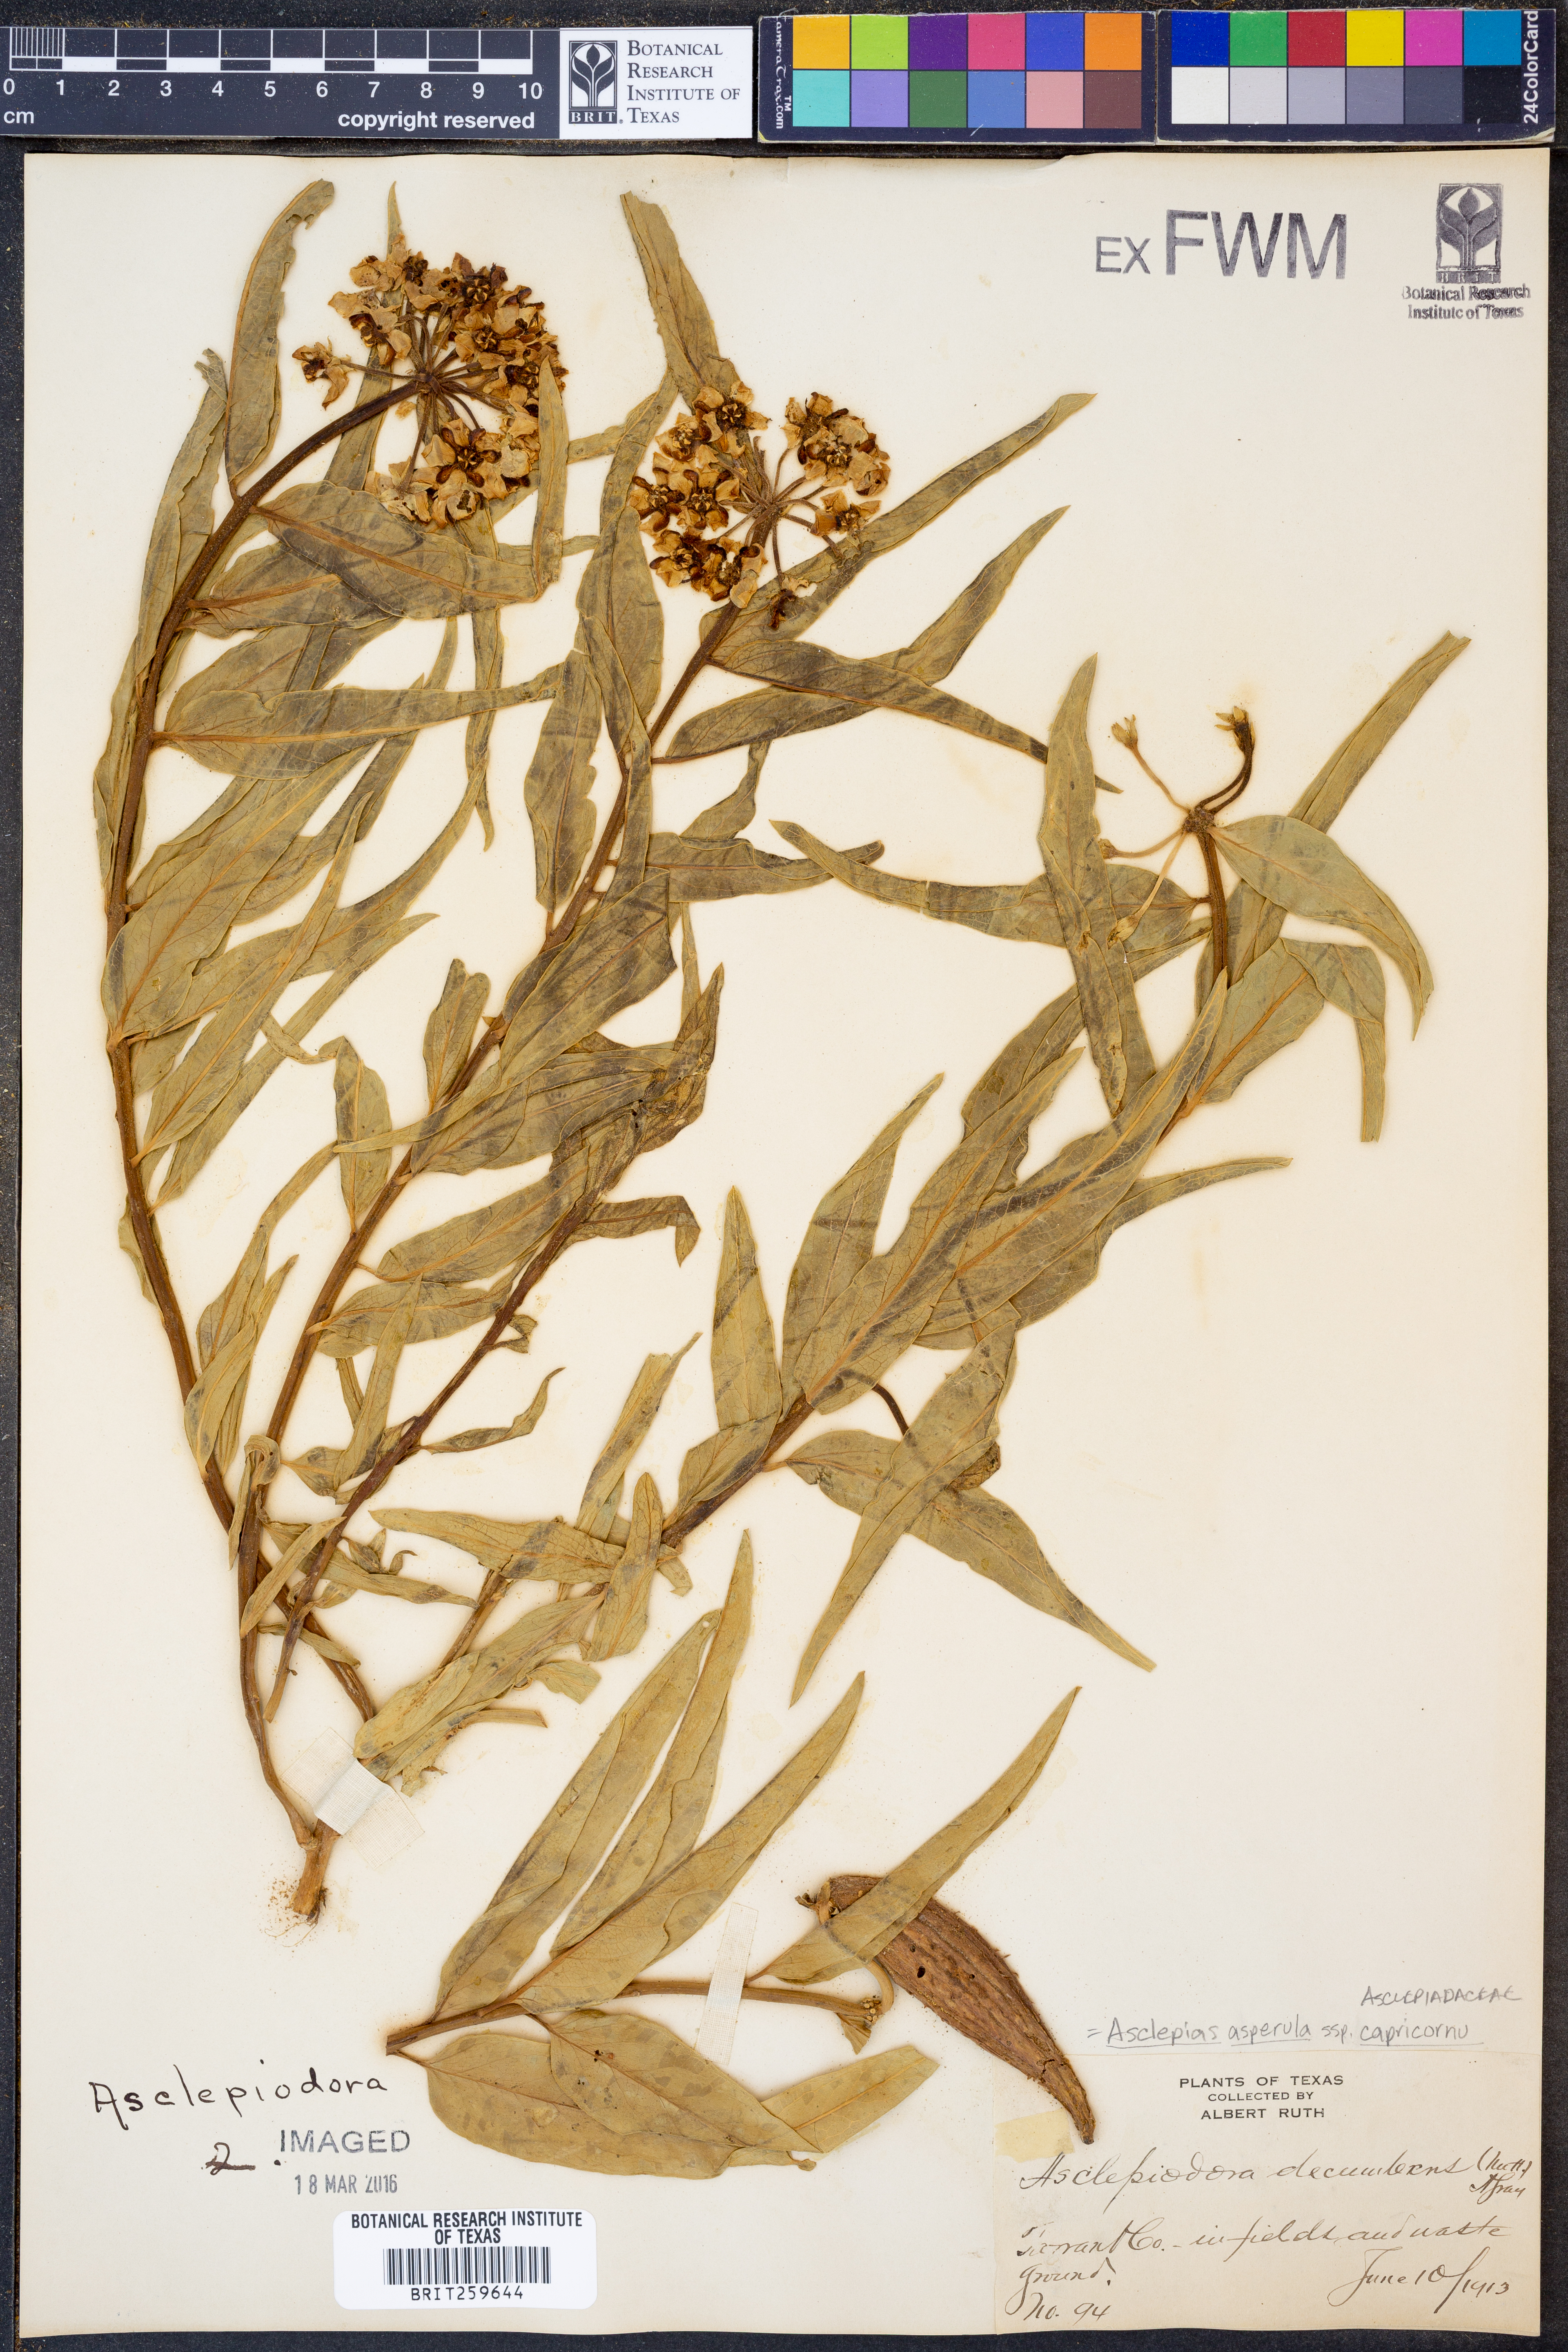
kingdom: Plantae
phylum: Tracheophyta
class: Magnoliopsida
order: Gentianales
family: Apocynaceae
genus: Asclepias
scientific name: Asclepias asperula
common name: Antelope horns
